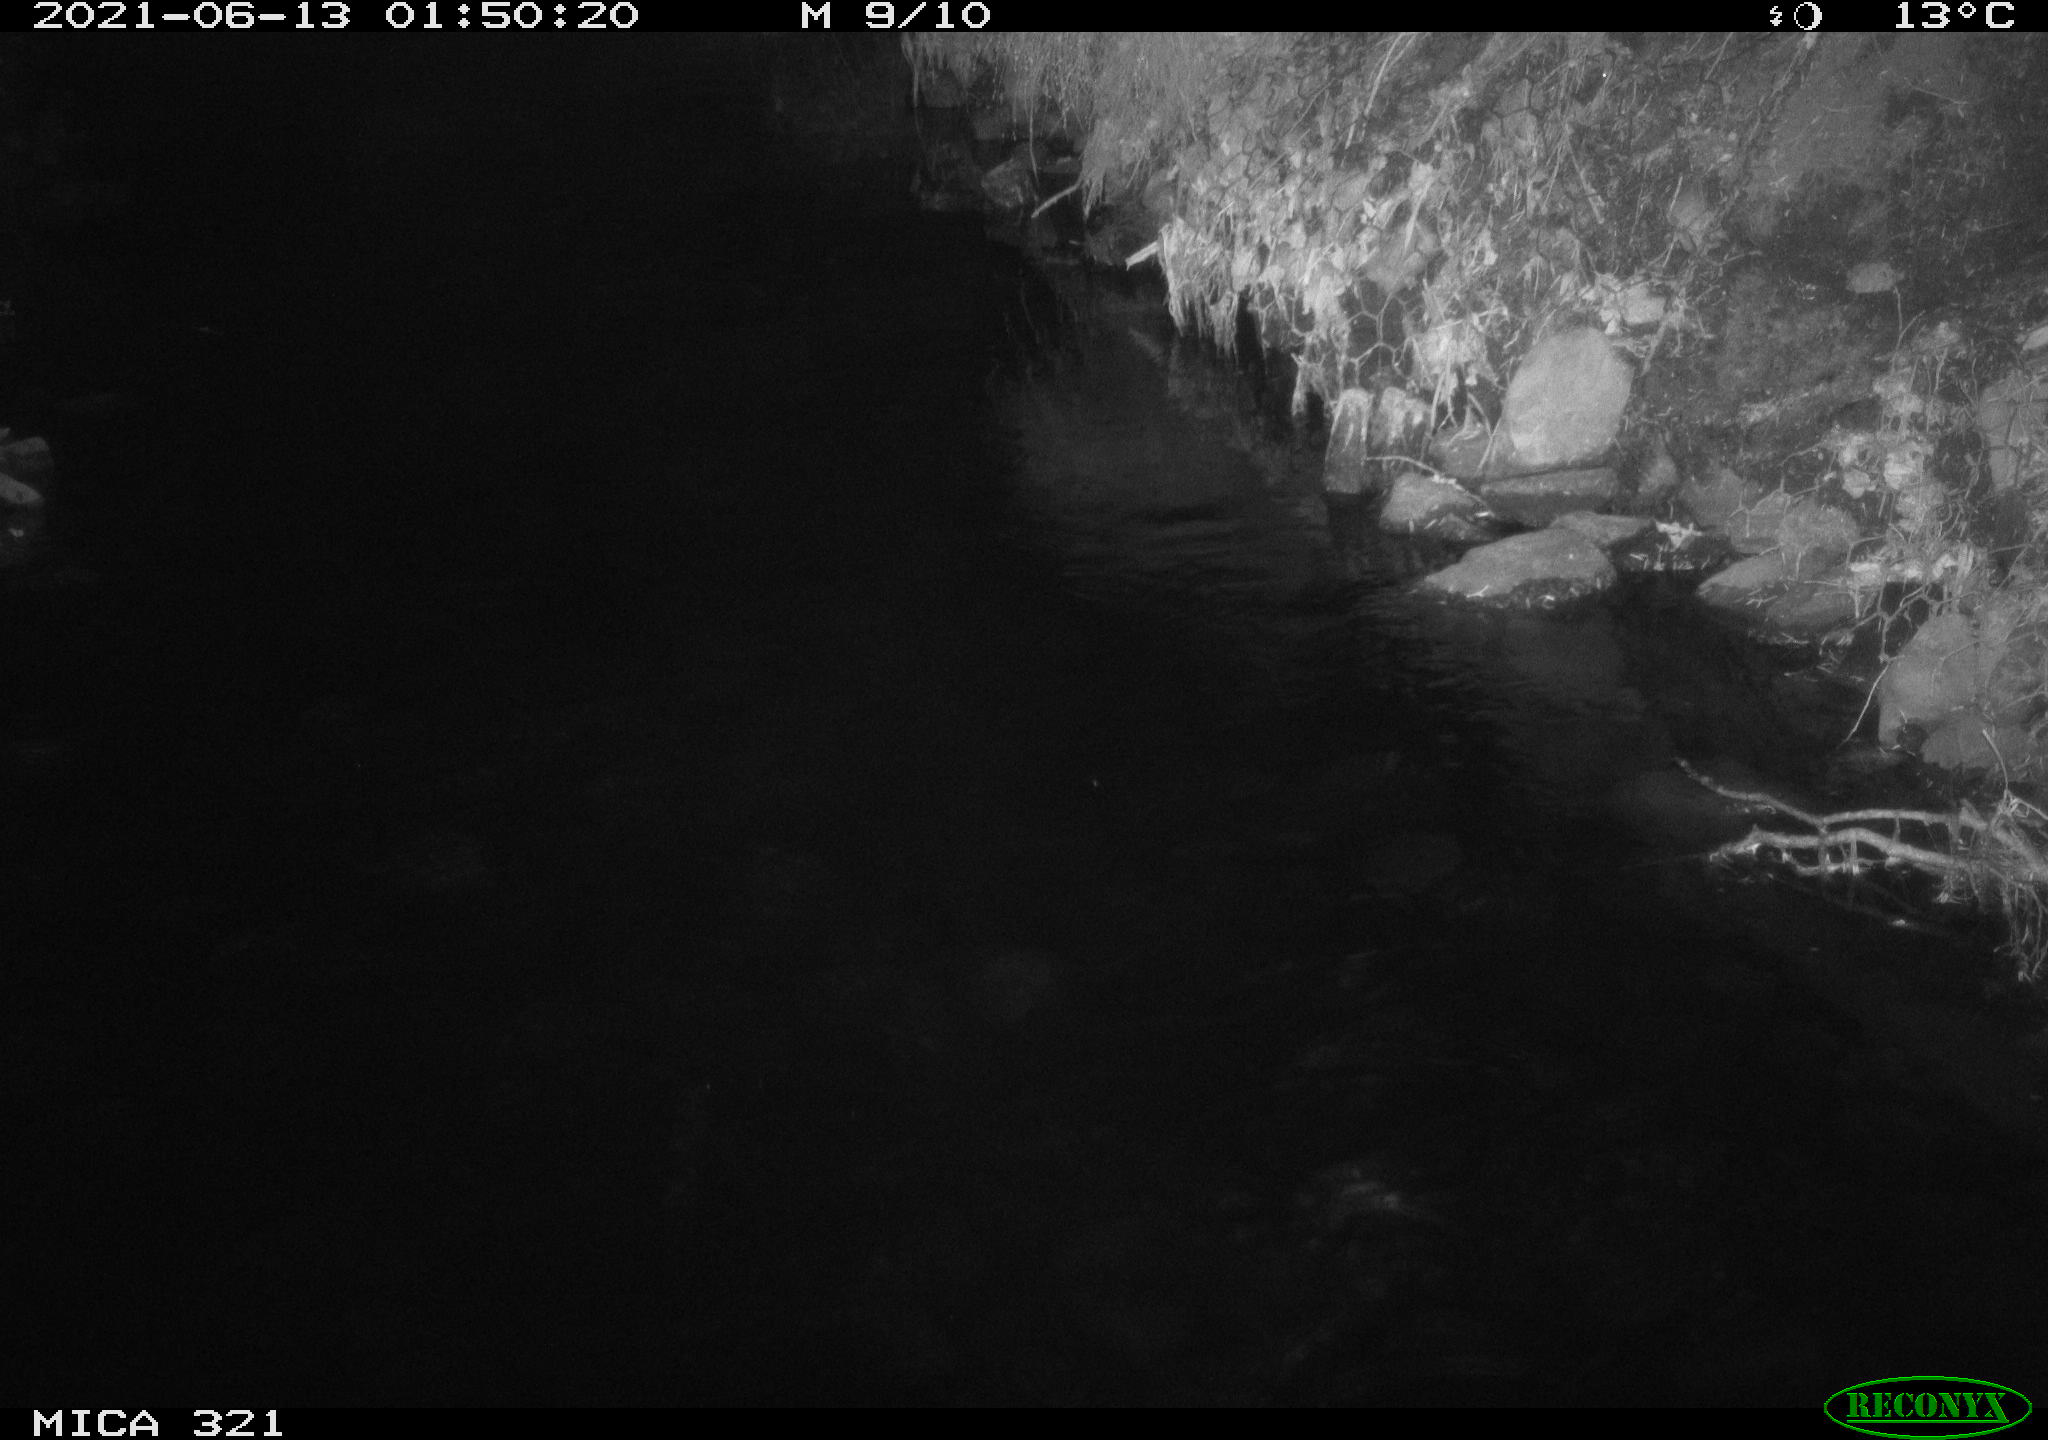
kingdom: Animalia
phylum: Chordata
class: Aves
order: Anseriformes
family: Anatidae
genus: Anas
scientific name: Anas platyrhynchos
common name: Mallard
